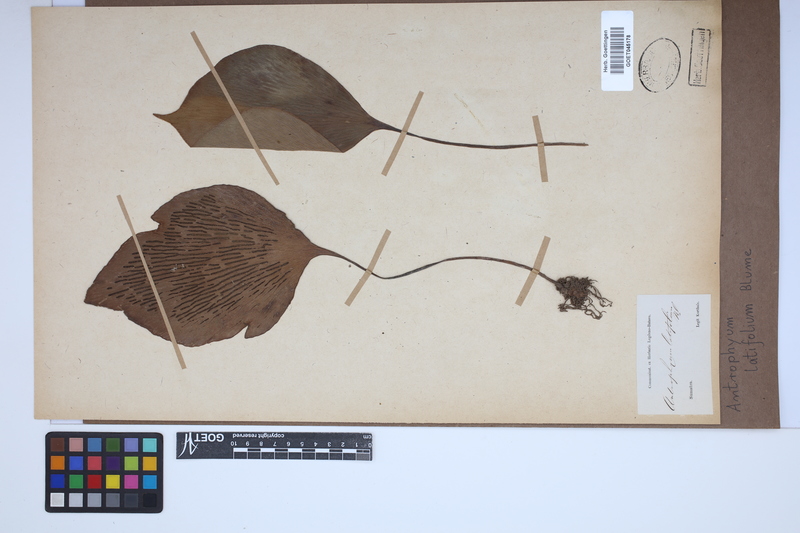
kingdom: Plantae
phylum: Tracheophyta
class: Polypodiopsida
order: Polypodiales
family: Pteridaceae
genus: Antrophyum
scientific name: Antrophyum latifolium
